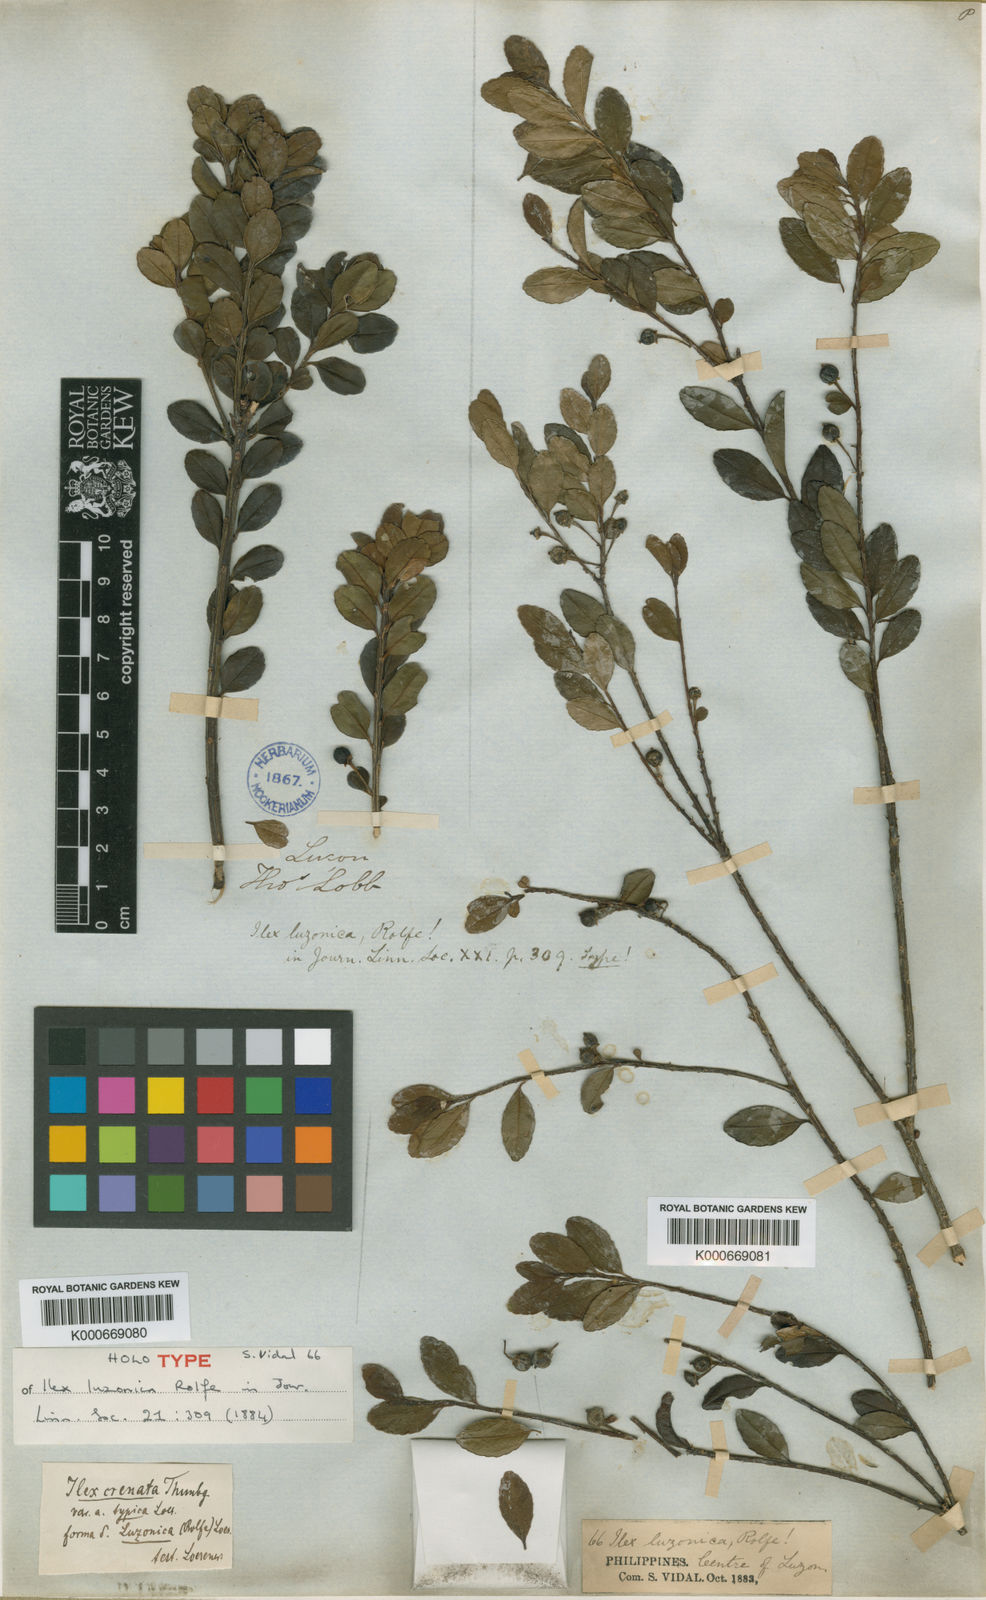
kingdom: Plantae
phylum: Tracheophyta
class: Magnoliopsida
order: Aquifoliales
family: Aquifoliaceae
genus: Ilex
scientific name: Ilex crenata
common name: Japanese holly
